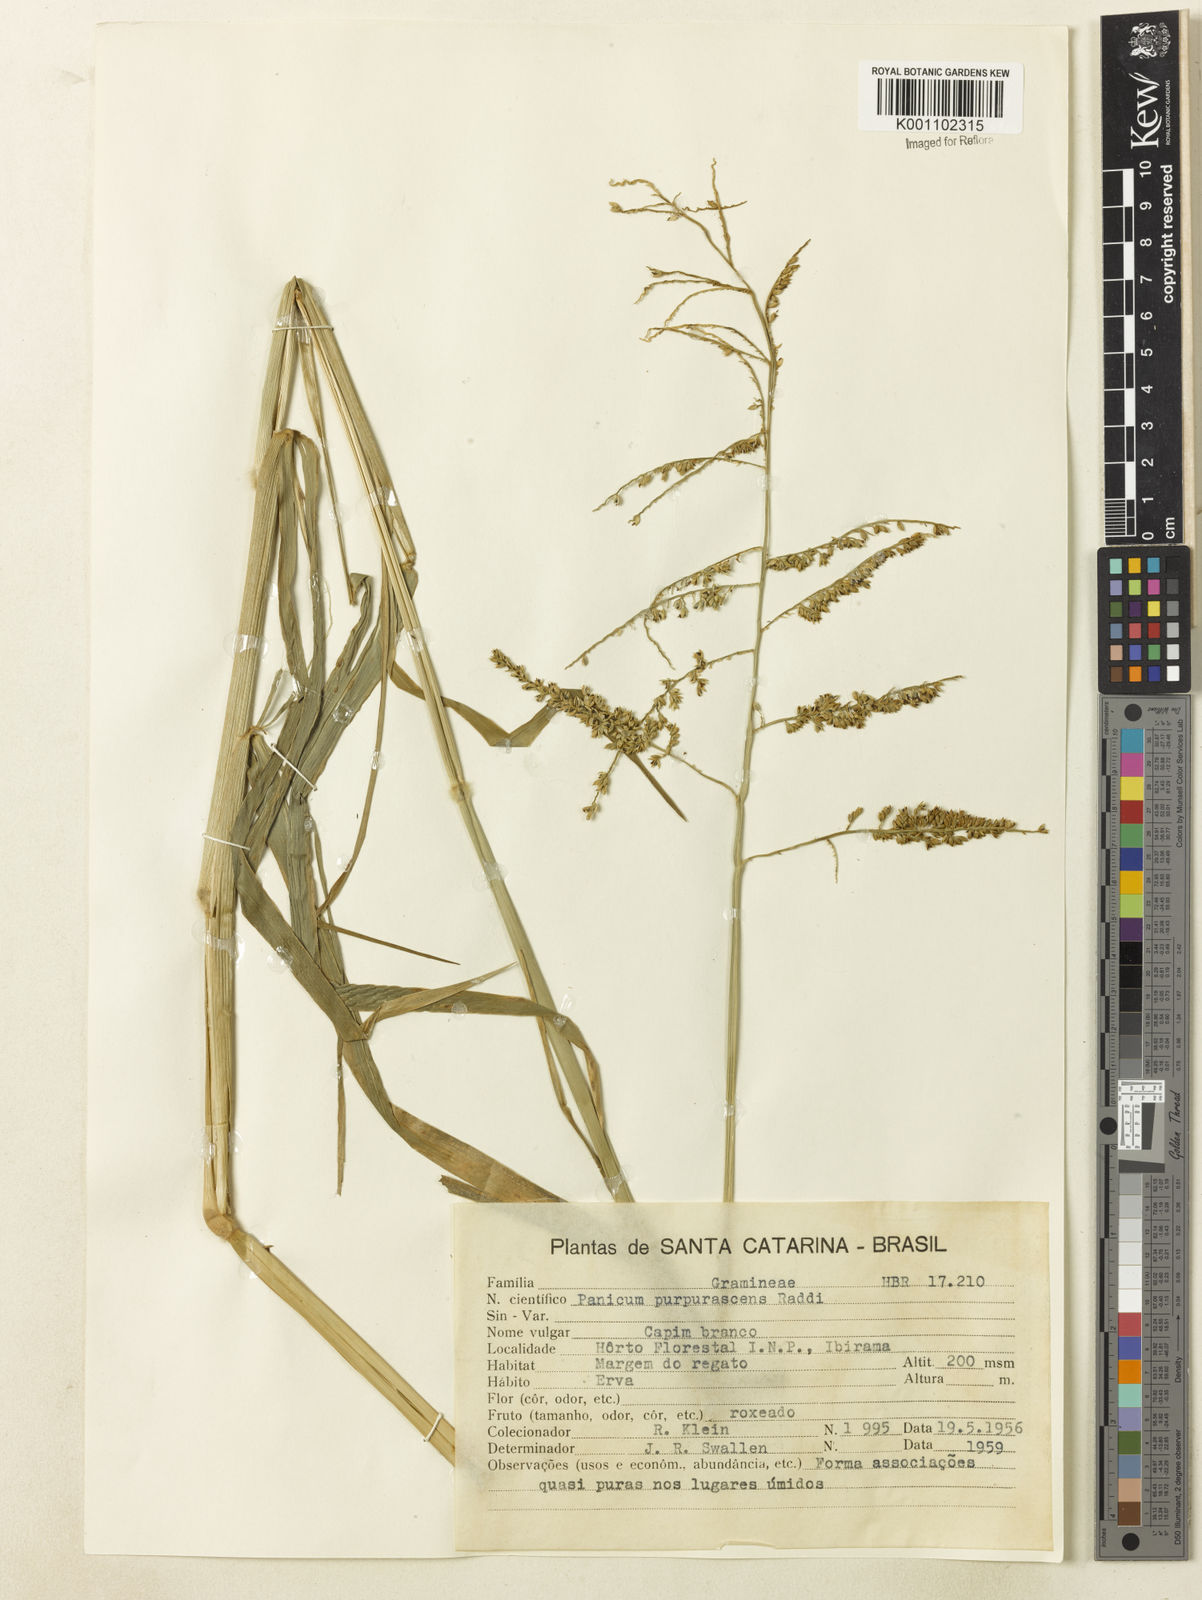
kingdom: Plantae
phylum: Tracheophyta
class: Liliopsida
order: Poales
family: Poaceae
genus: Urochloa
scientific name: Urochloa mutica
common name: Para grass
